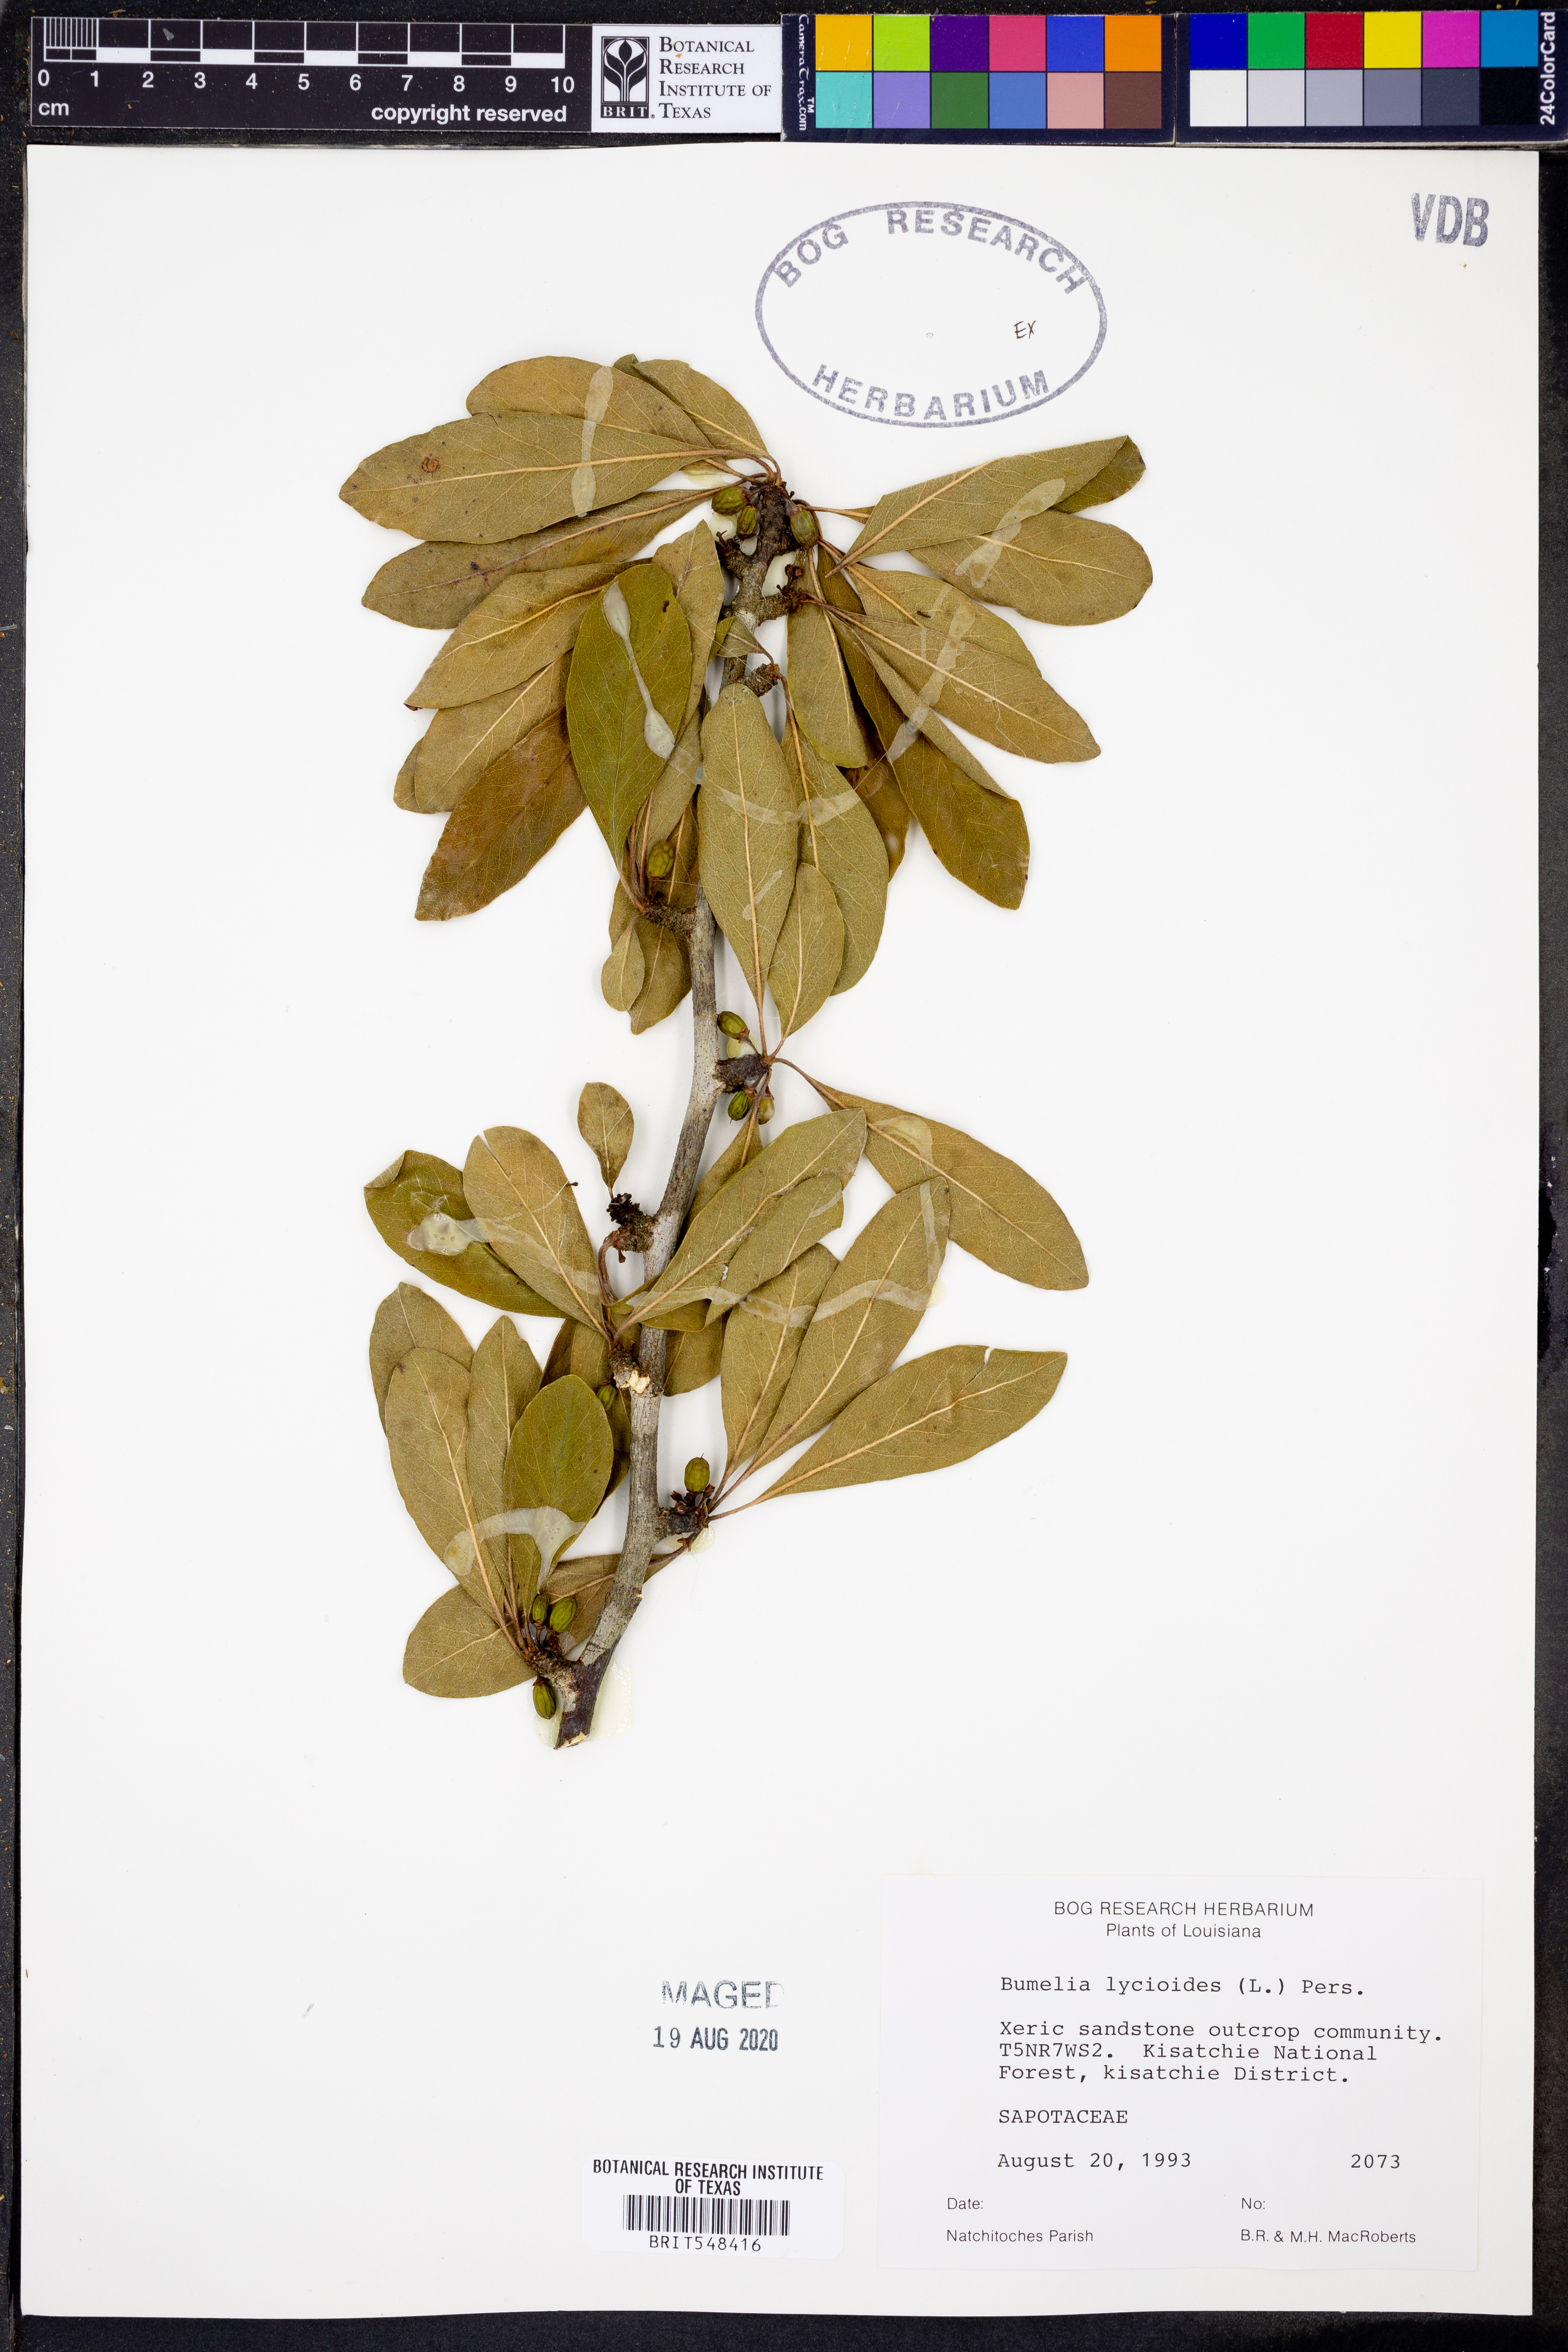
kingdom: Plantae
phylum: Tracheophyta
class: Magnoliopsida
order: Ericales
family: Sapotaceae
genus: Sideroxylon
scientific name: Sideroxylon lycioides
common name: Buckthorn bumelia
